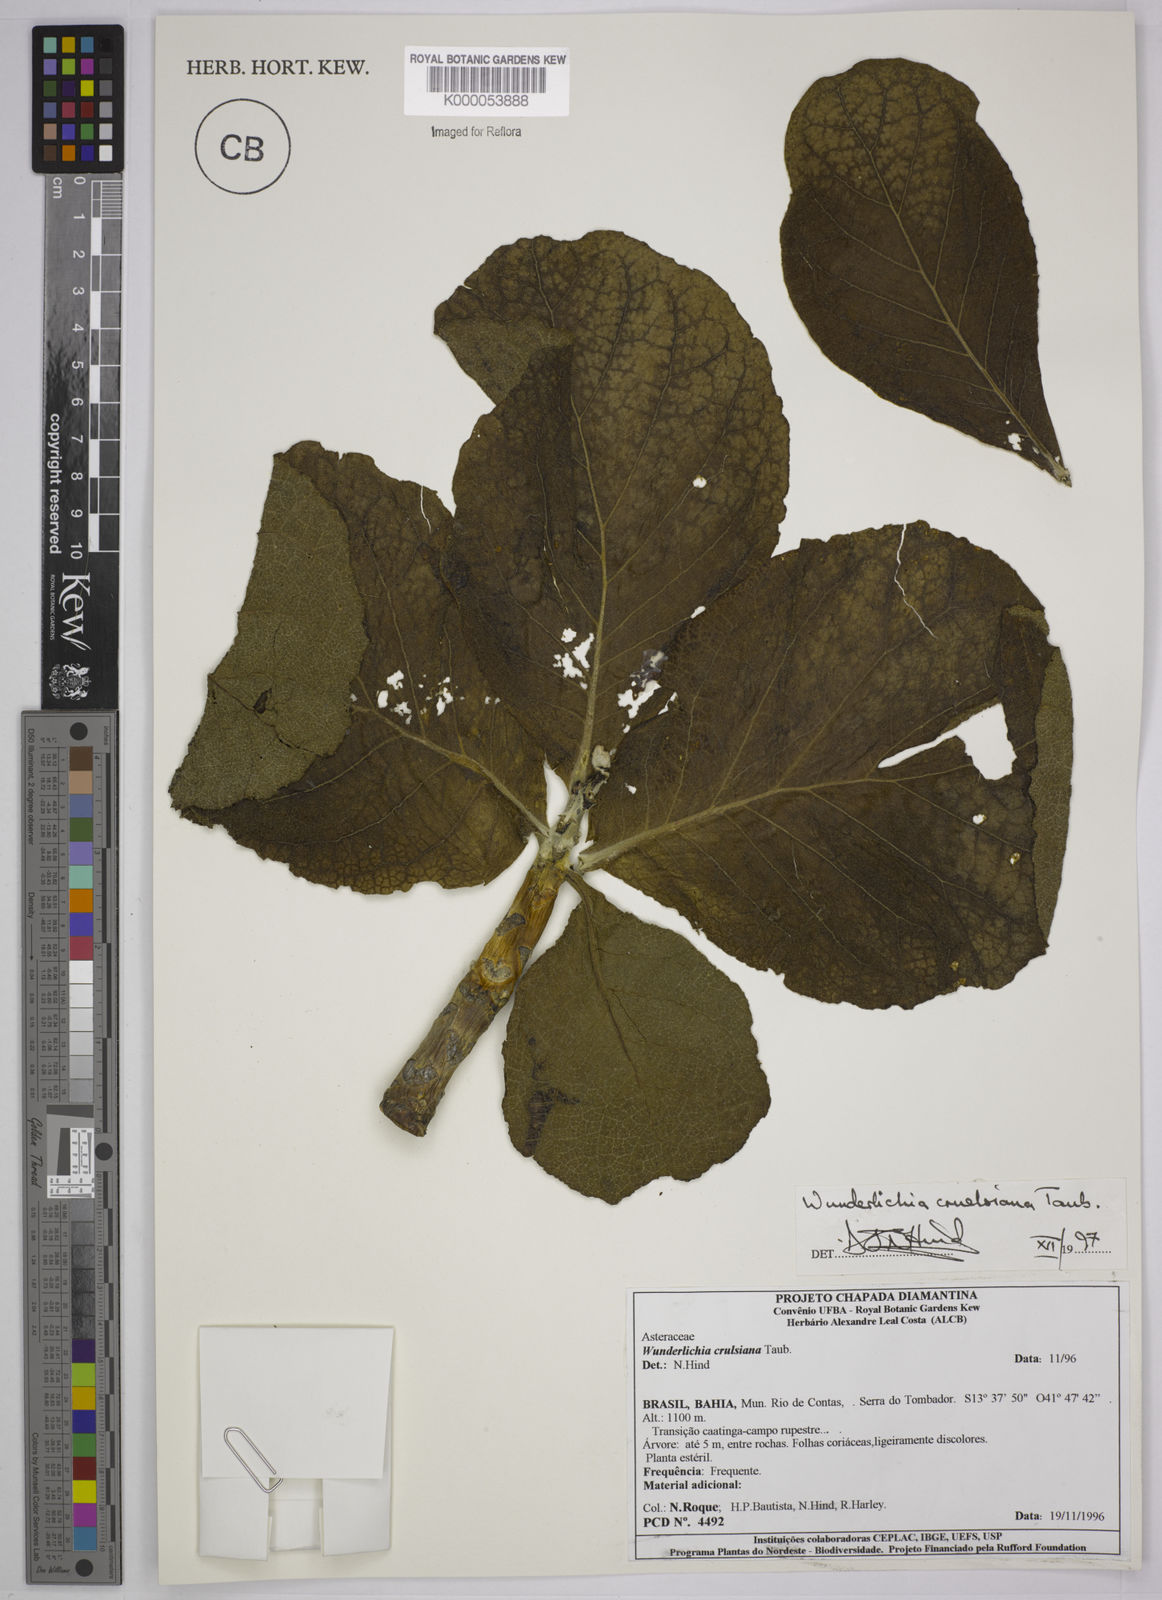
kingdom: Plantae
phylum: Tracheophyta
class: Magnoliopsida
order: Asterales
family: Asteraceae
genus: Wunderlichia
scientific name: Wunderlichia
